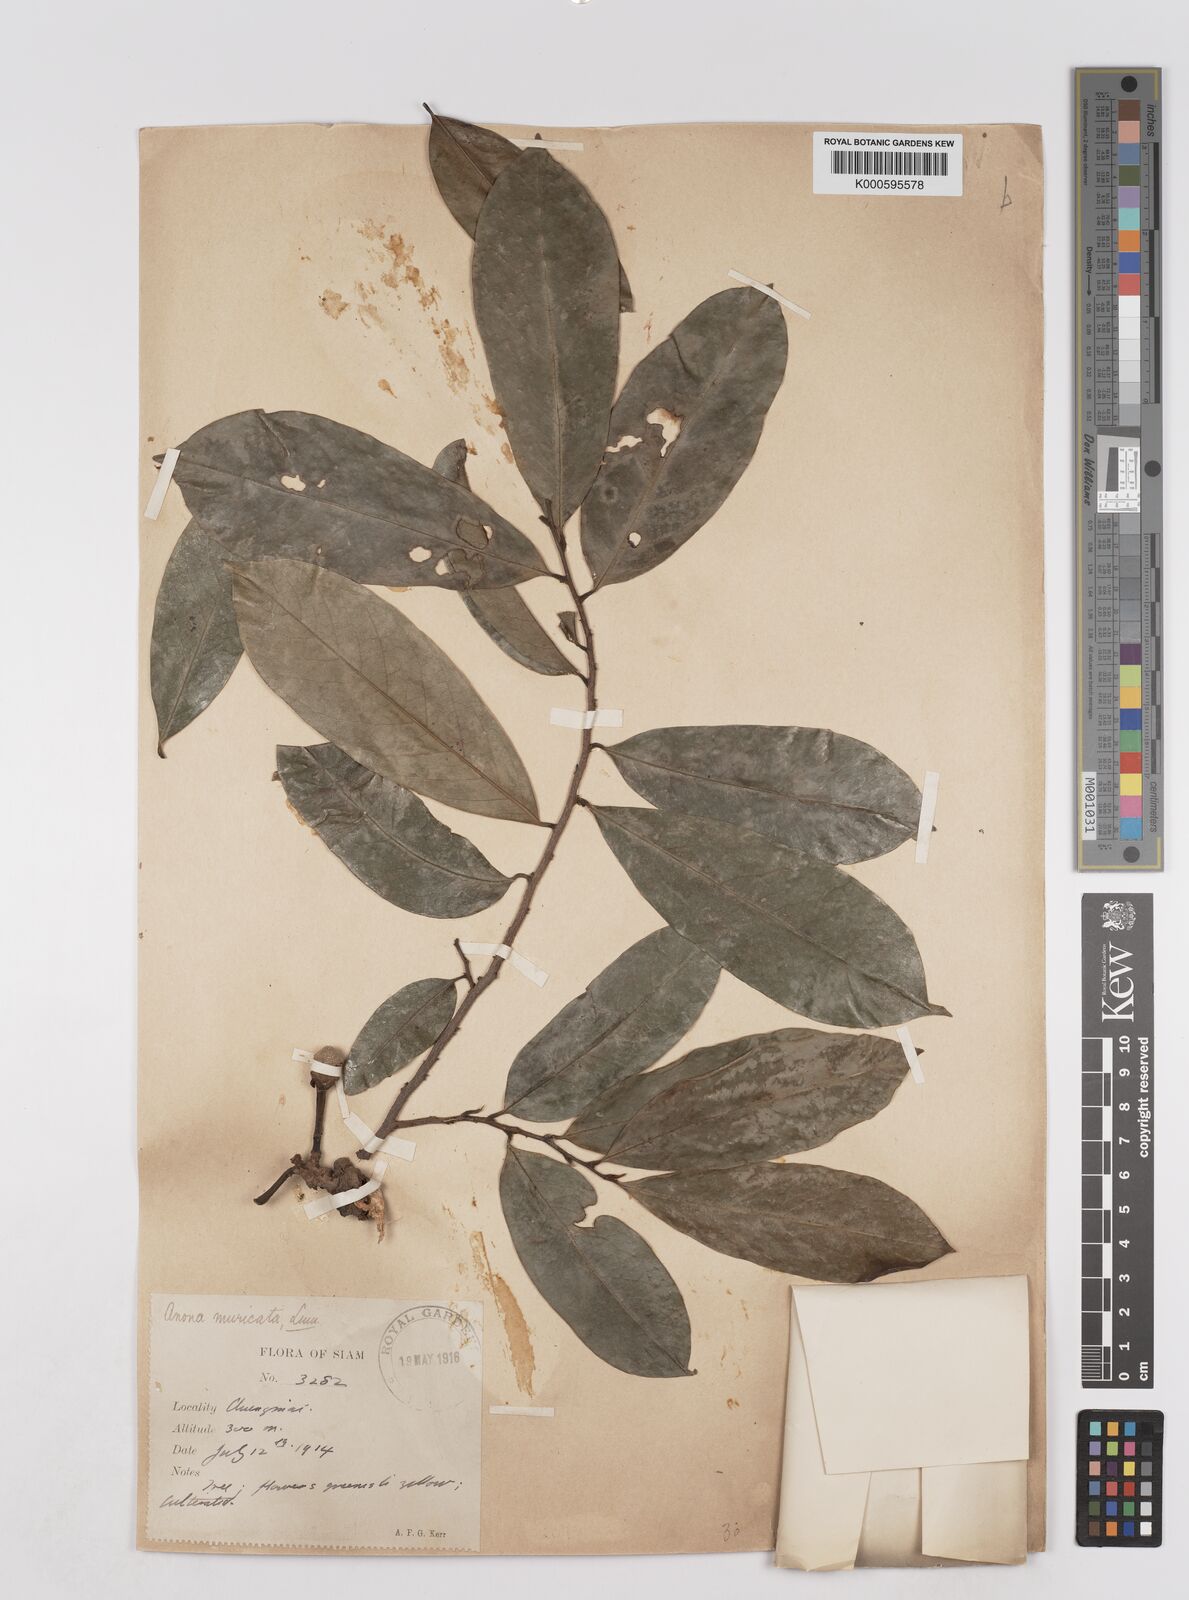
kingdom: Plantae
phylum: Tracheophyta
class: Magnoliopsida
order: Magnoliales
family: Annonaceae
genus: Annona
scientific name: Annona muricata
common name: Soursop
